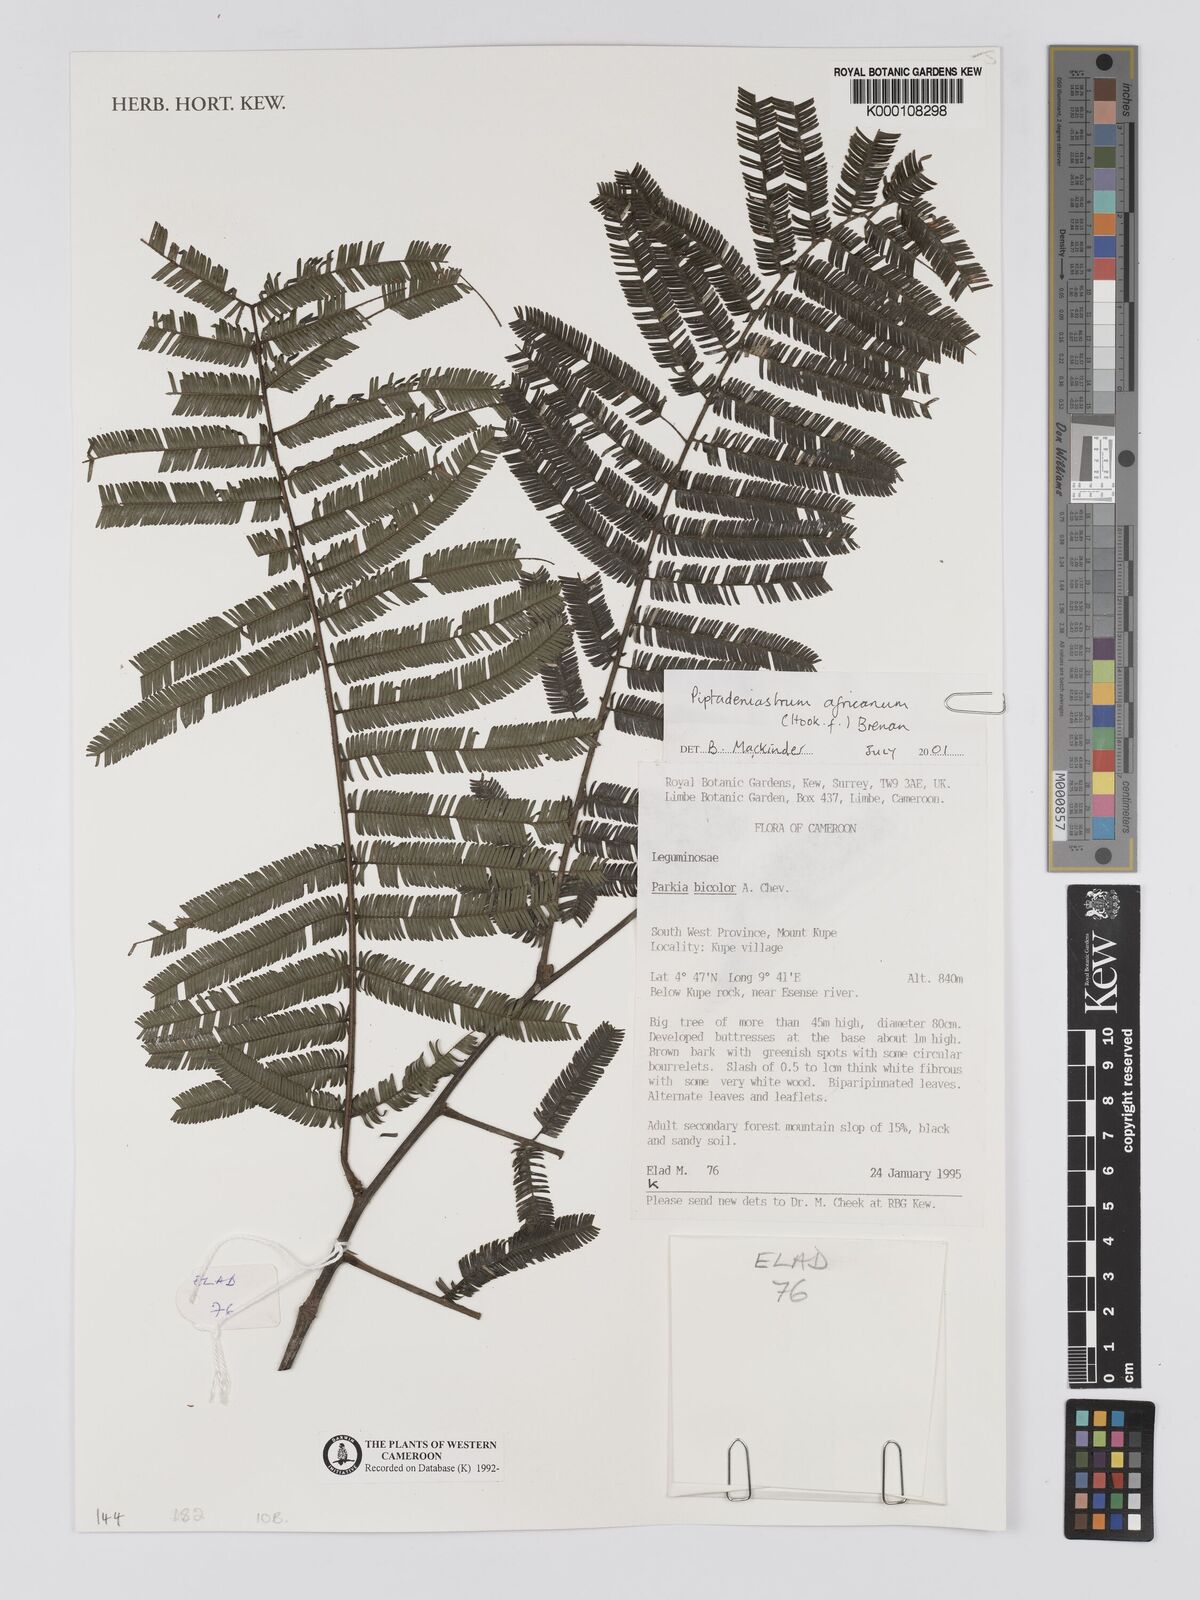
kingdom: Plantae
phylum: Tracheophyta
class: Magnoliopsida
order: Fabales
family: Fabaceae
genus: Piptadeniastrum
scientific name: Piptadeniastrum africanum
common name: African greenheart
